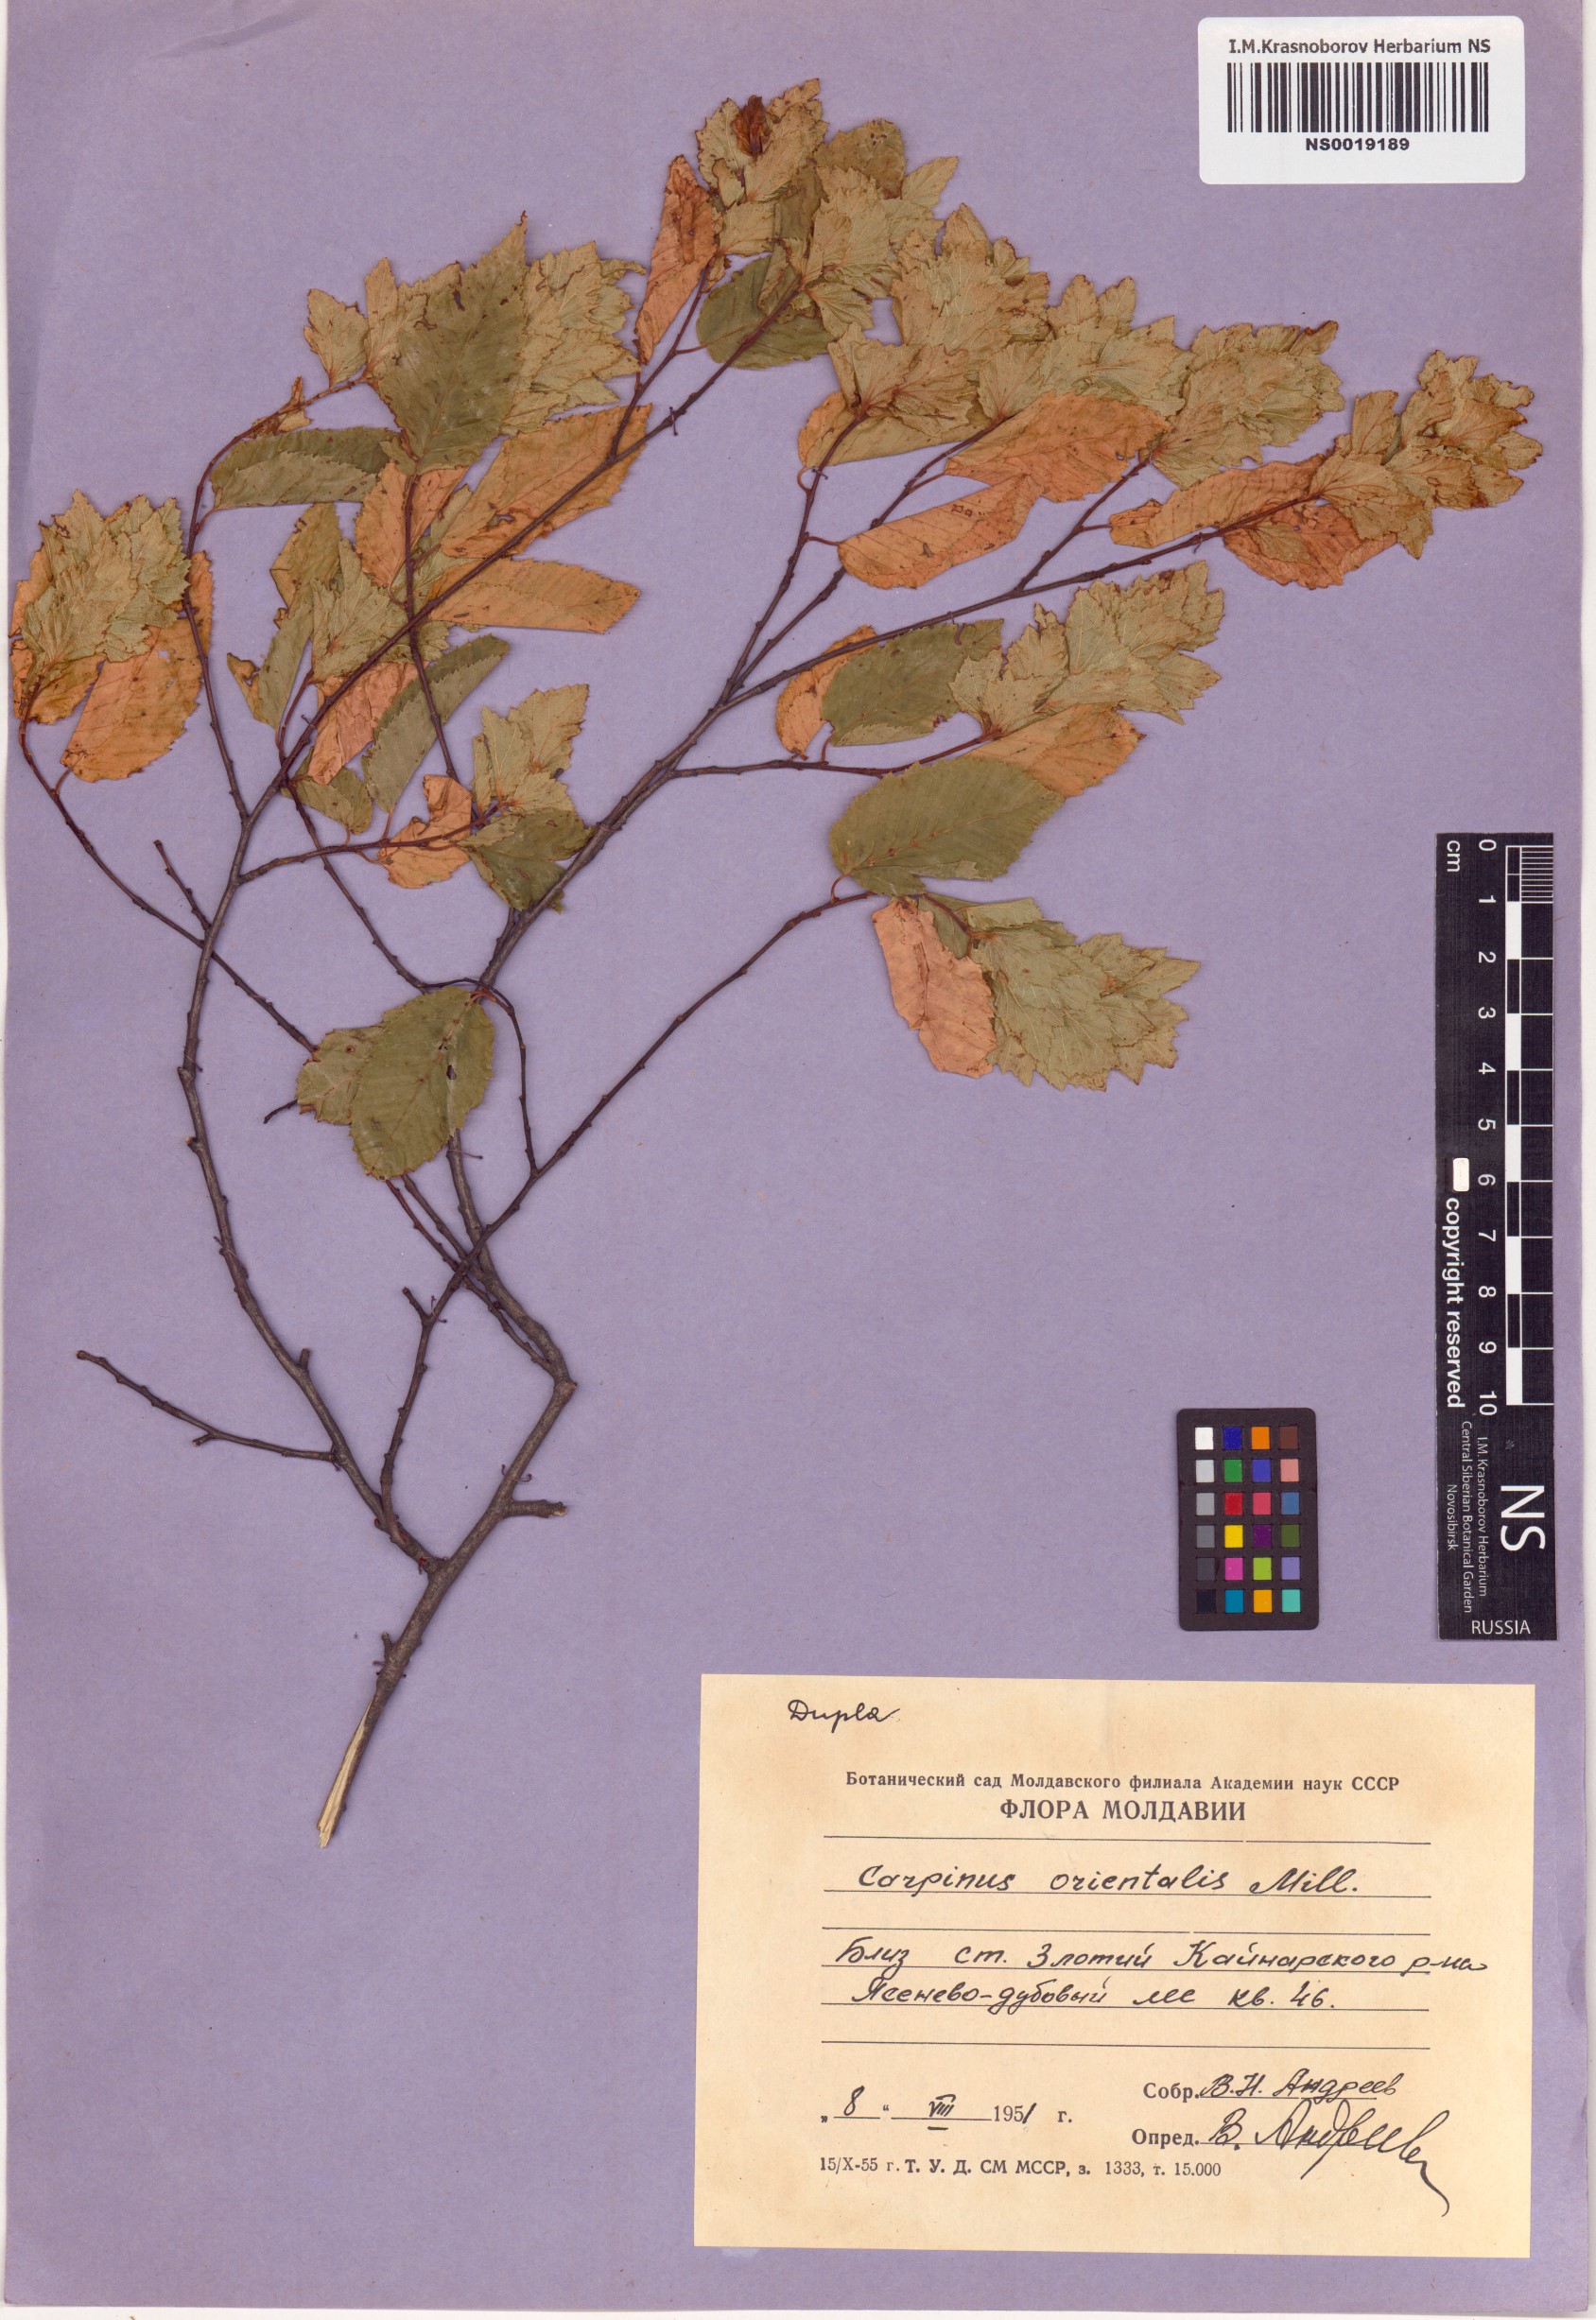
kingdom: Plantae
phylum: Tracheophyta
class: Magnoliopsida
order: Fagales
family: Betulaceae
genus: Carpinus
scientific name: Carpinus orientalis
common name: Eastern hornbeam
